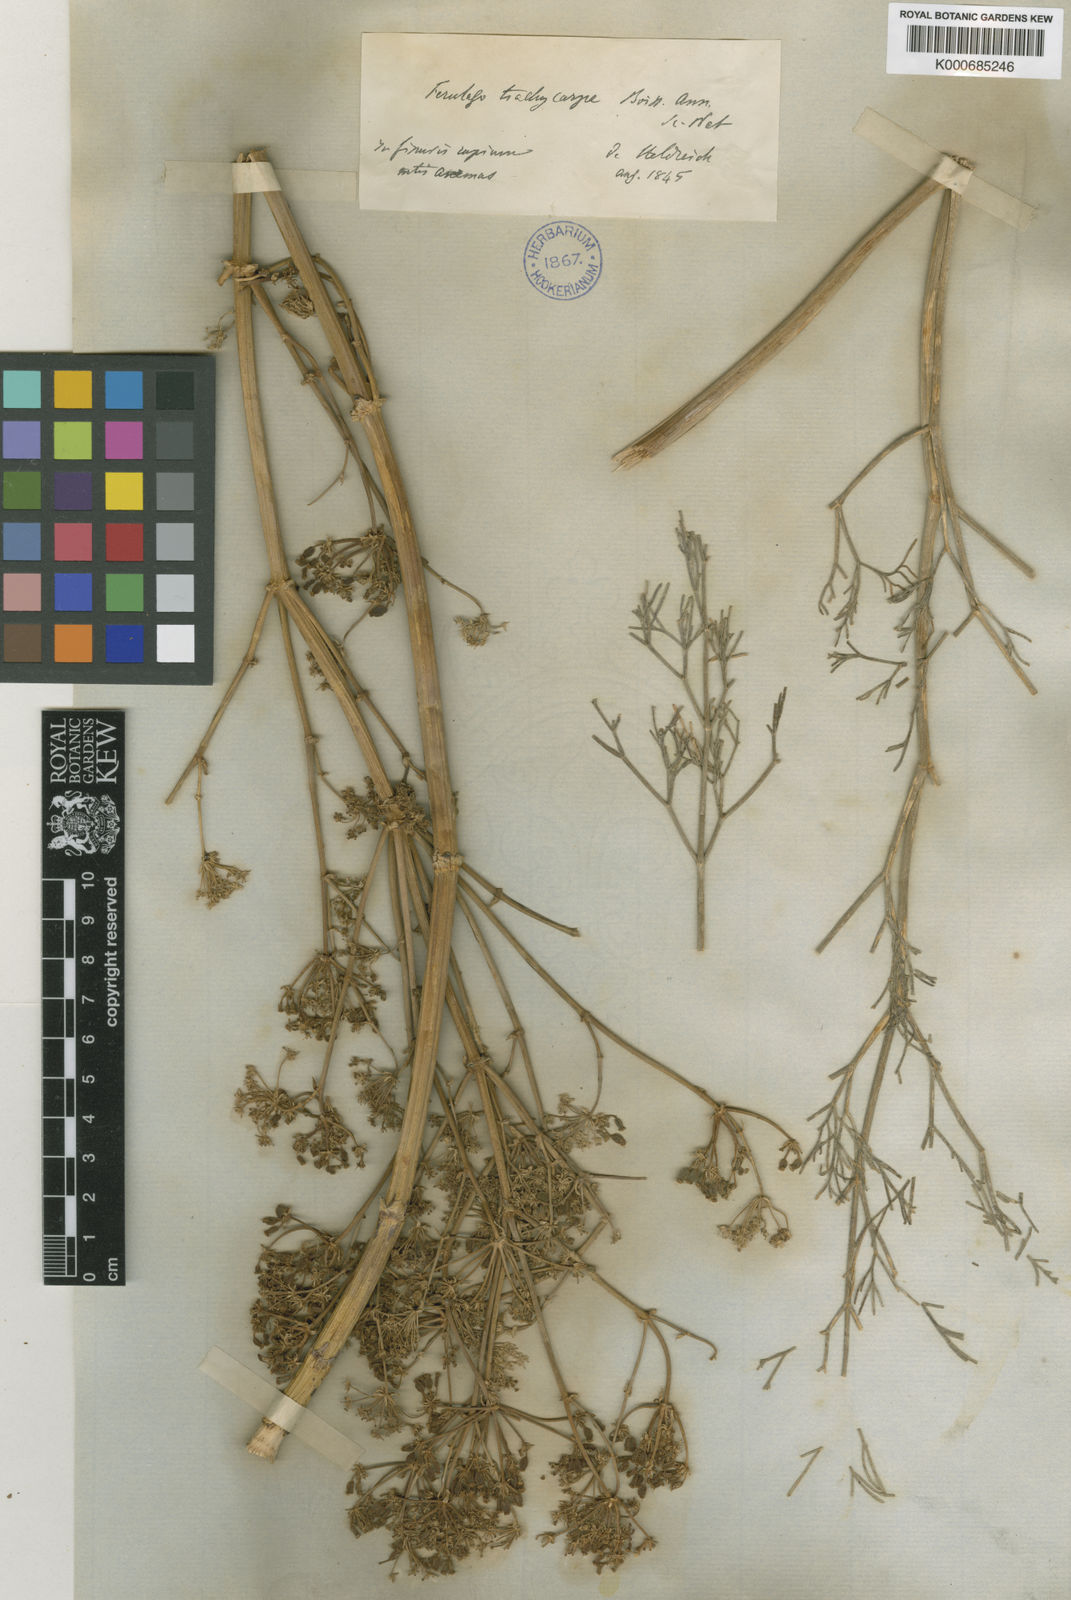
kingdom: Plantae
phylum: Tracheophyta
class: Magnoliopsida
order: Apiales
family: Apiaceae
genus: Ferulago
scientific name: Ferulago trachycarpa
